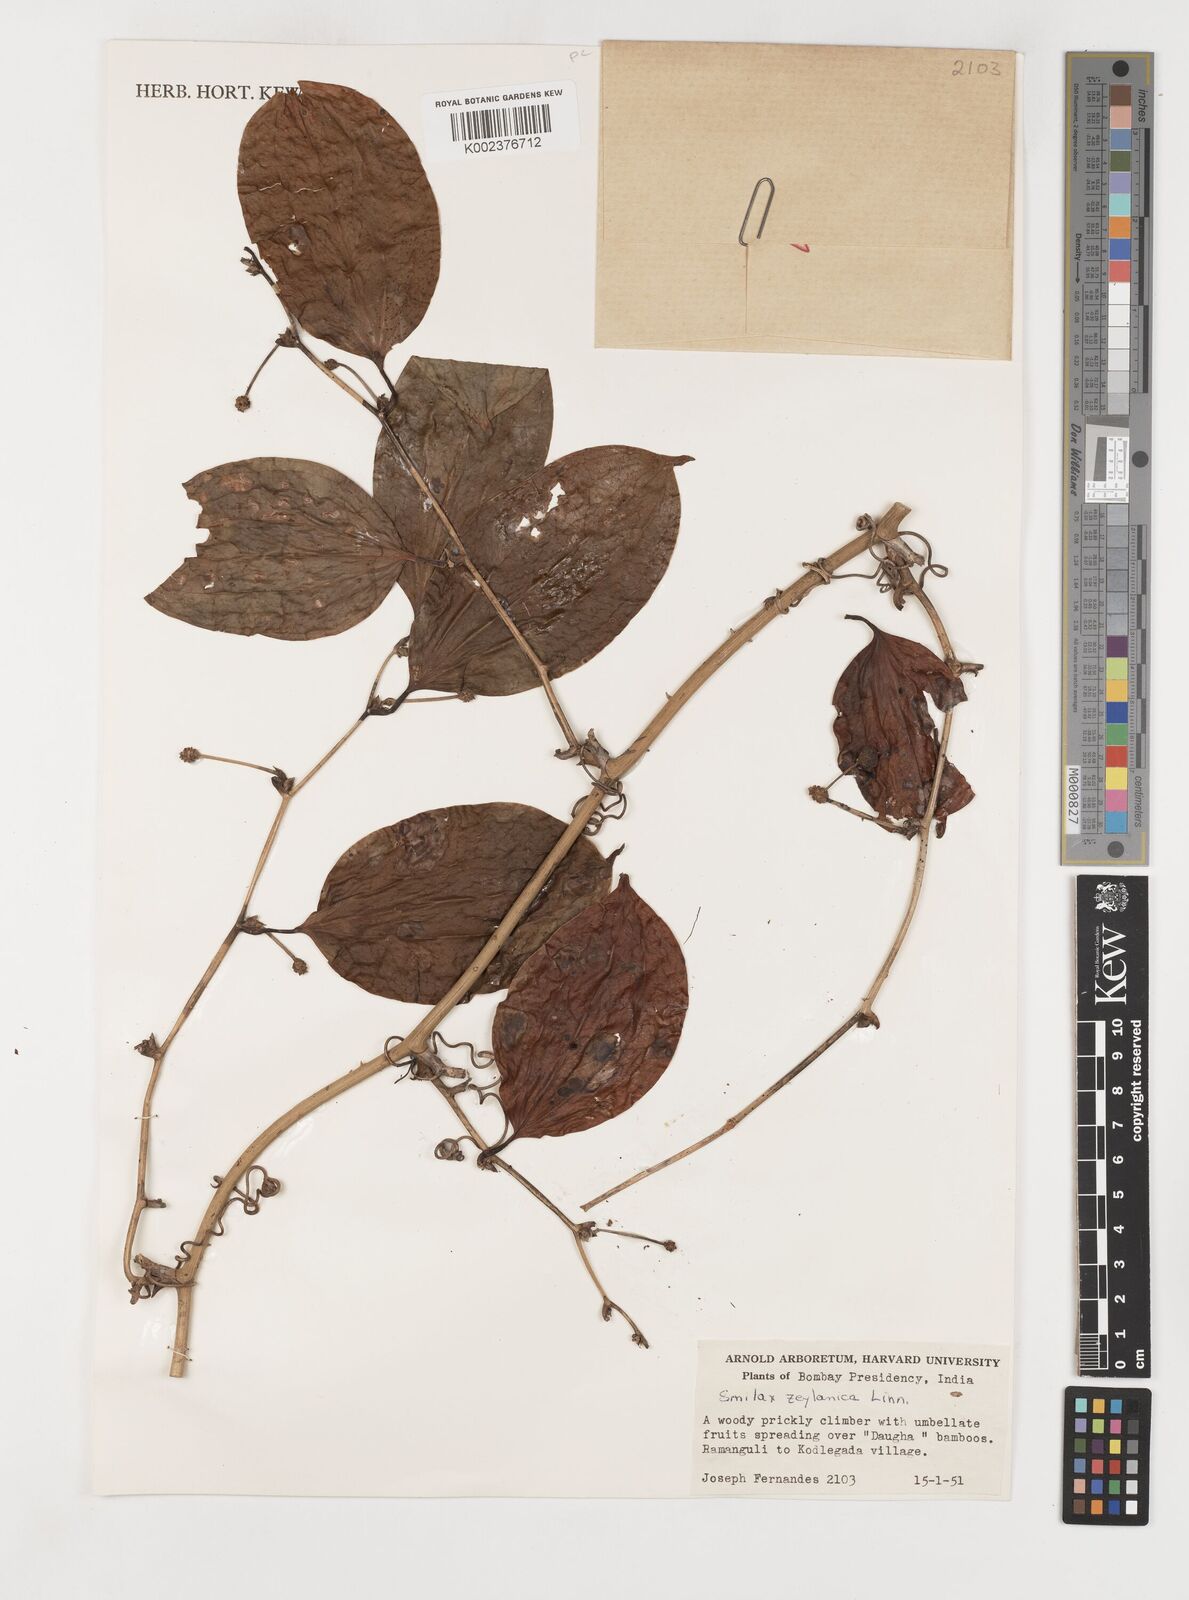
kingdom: Plantae
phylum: Tracheophyta
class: Liliopsida
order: Liliales
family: Smilacaceae
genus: Smilax
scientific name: Smilax zeylanica
